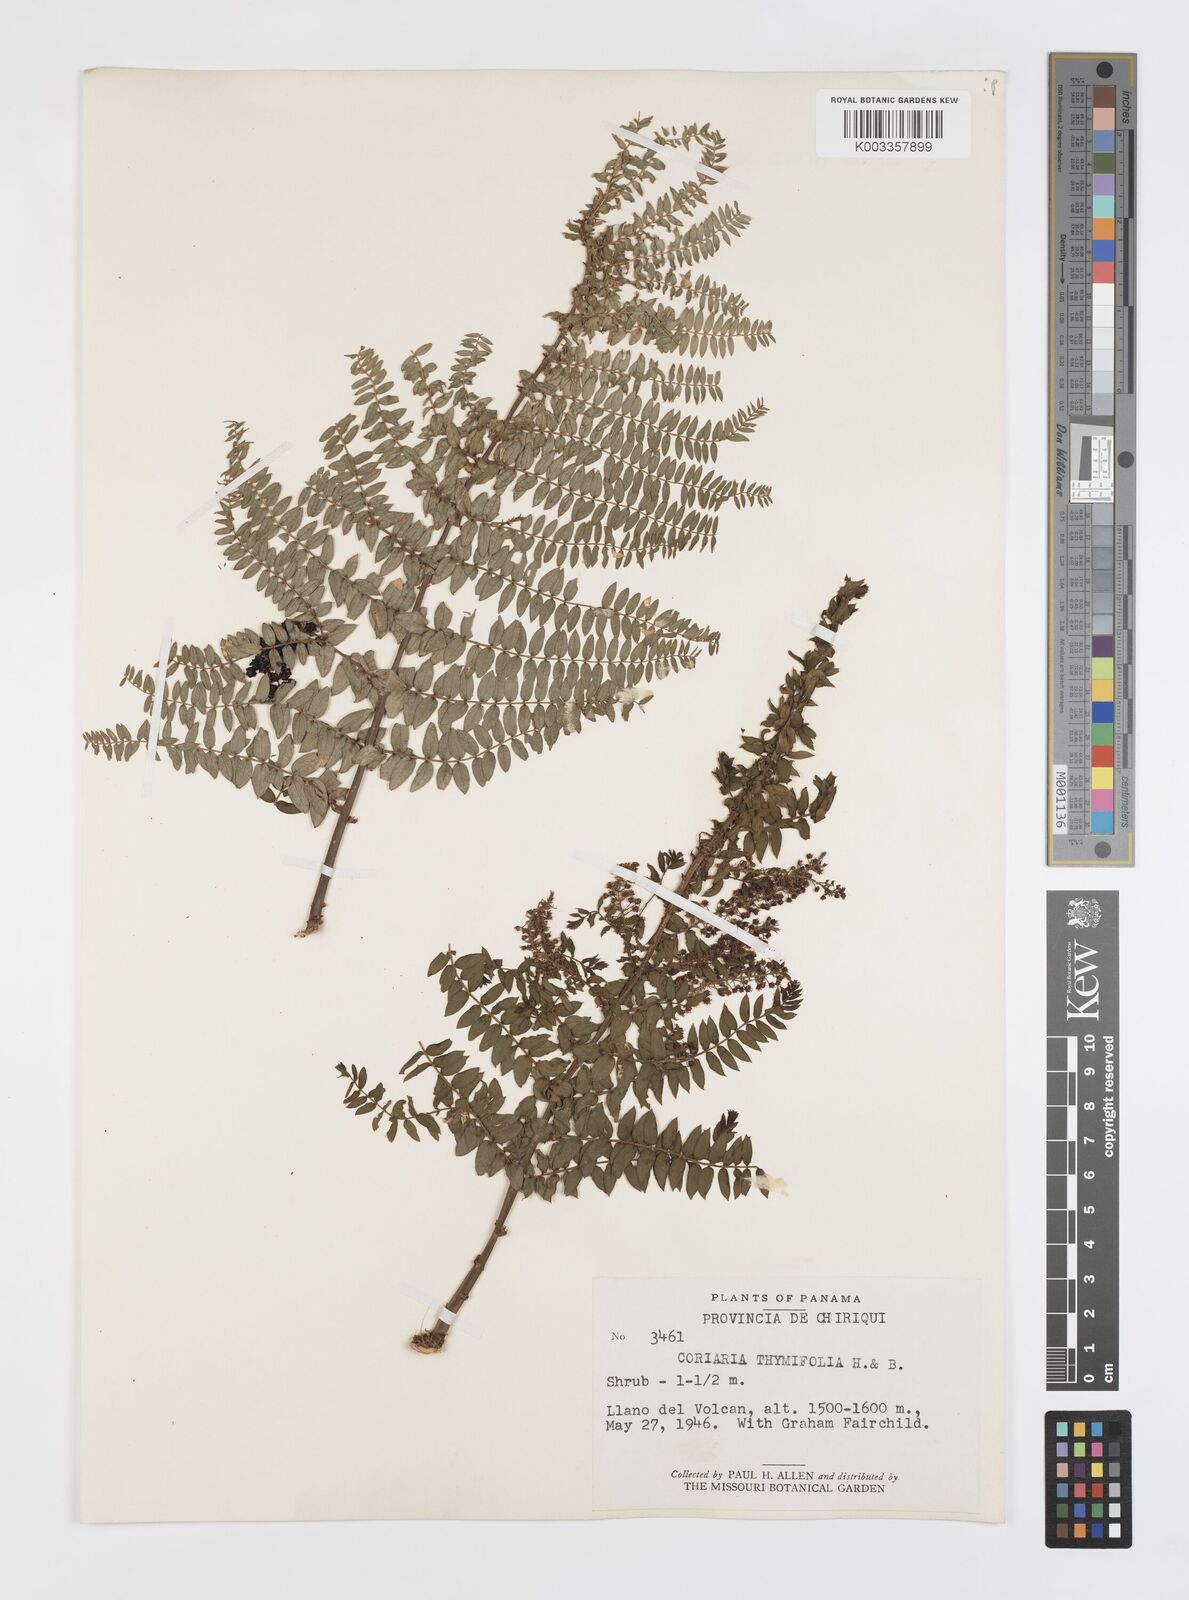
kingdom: Plantae
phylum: Tracheophyta
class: Magnoliopsida
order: Cucurbitales
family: Coriariaceae
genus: Coriaria
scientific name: Coriaria microphylla
